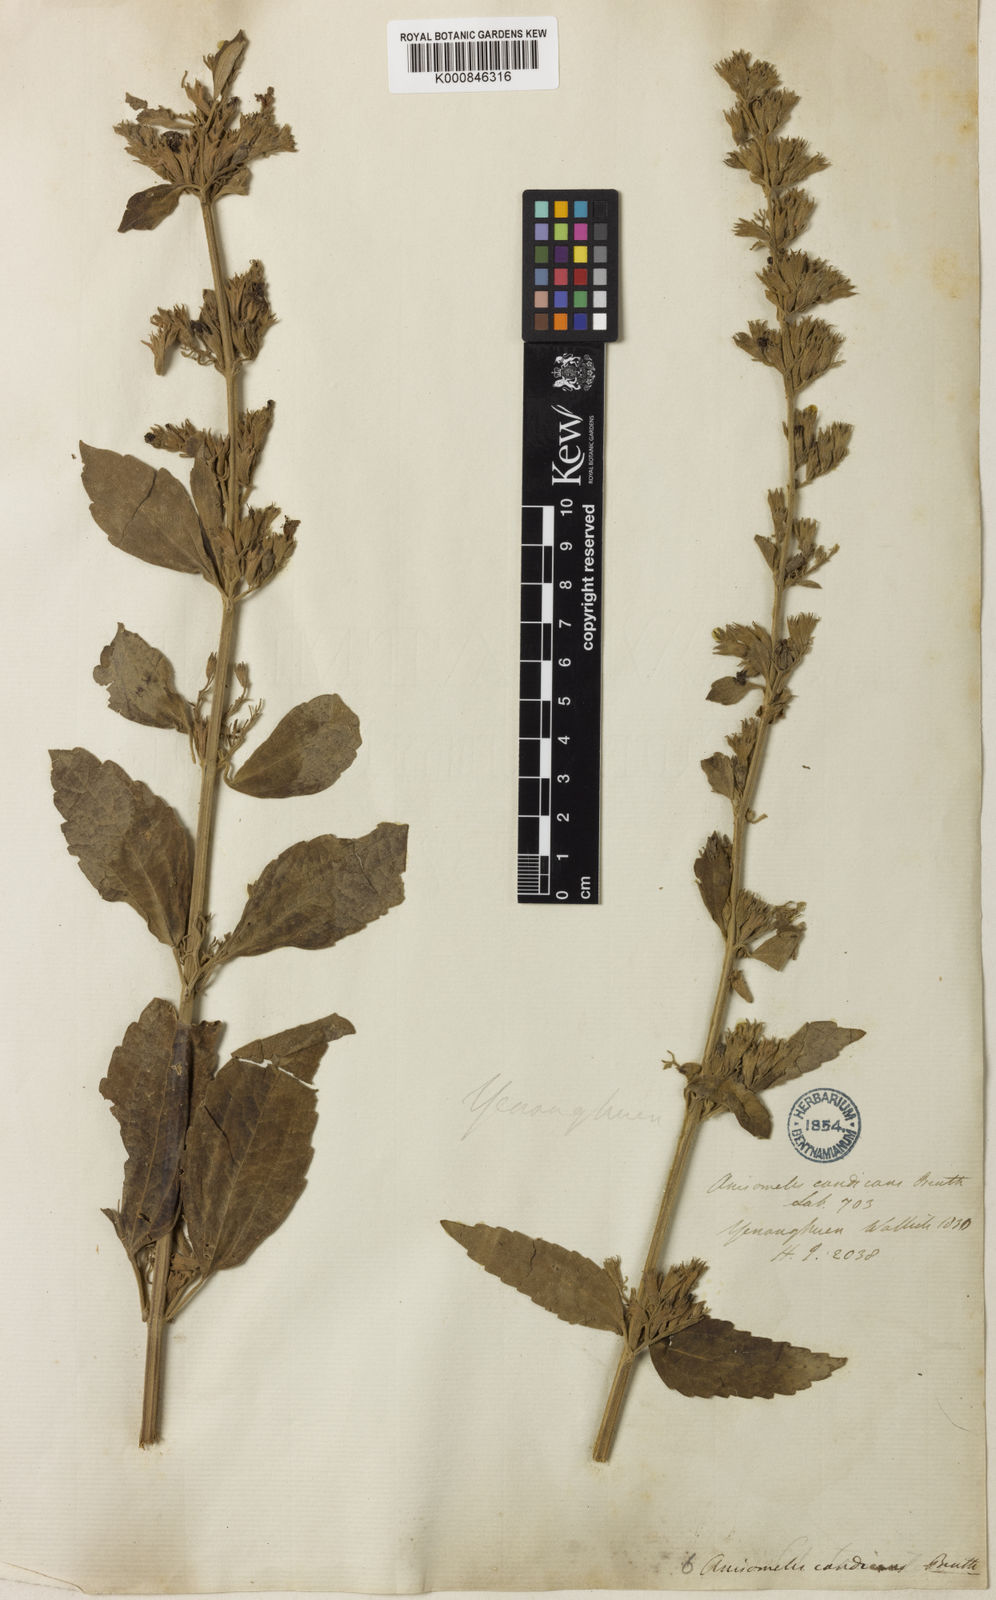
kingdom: Plantae
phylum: Tracheophyta
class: Magnoliopsida
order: Lamiales
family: Lamiaceae
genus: Anisomeles
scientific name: Anisomeles indica
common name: Catmint
